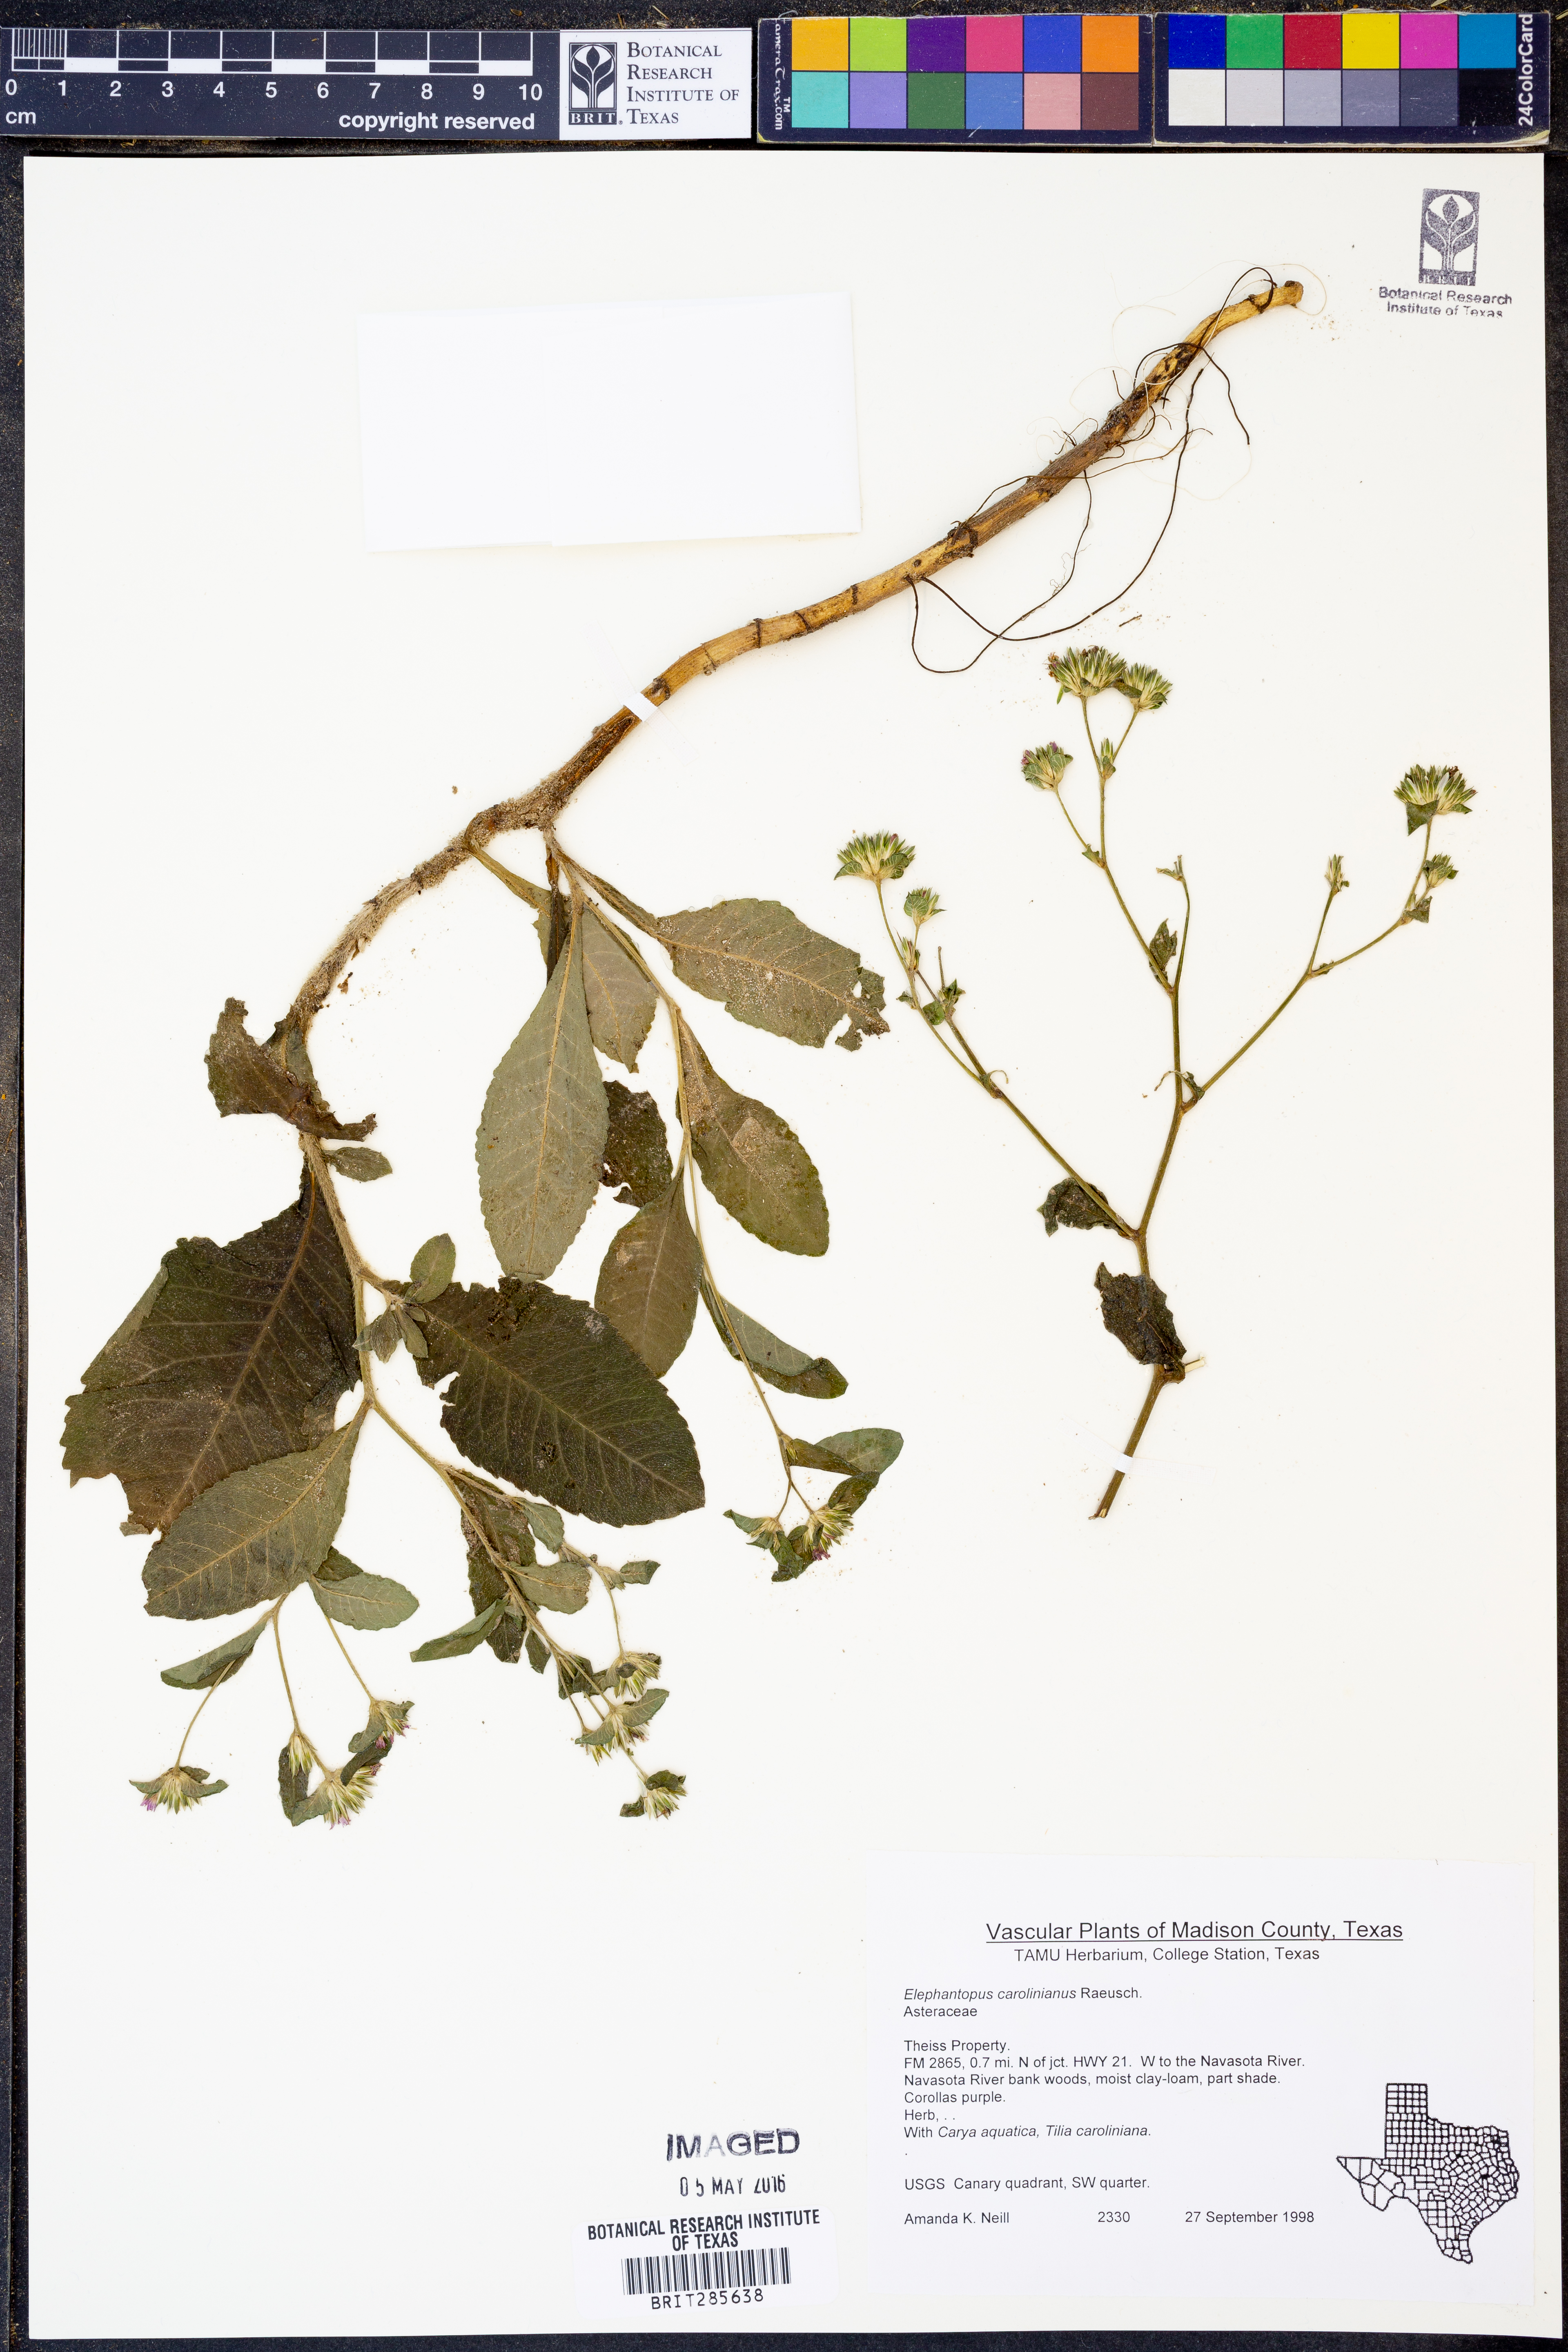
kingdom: Plantae
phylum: Tracheophyta
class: Magnoliopsida
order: Asterales
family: Asteraceae
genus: Elephantopus
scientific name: Elephantopus carolinianus
